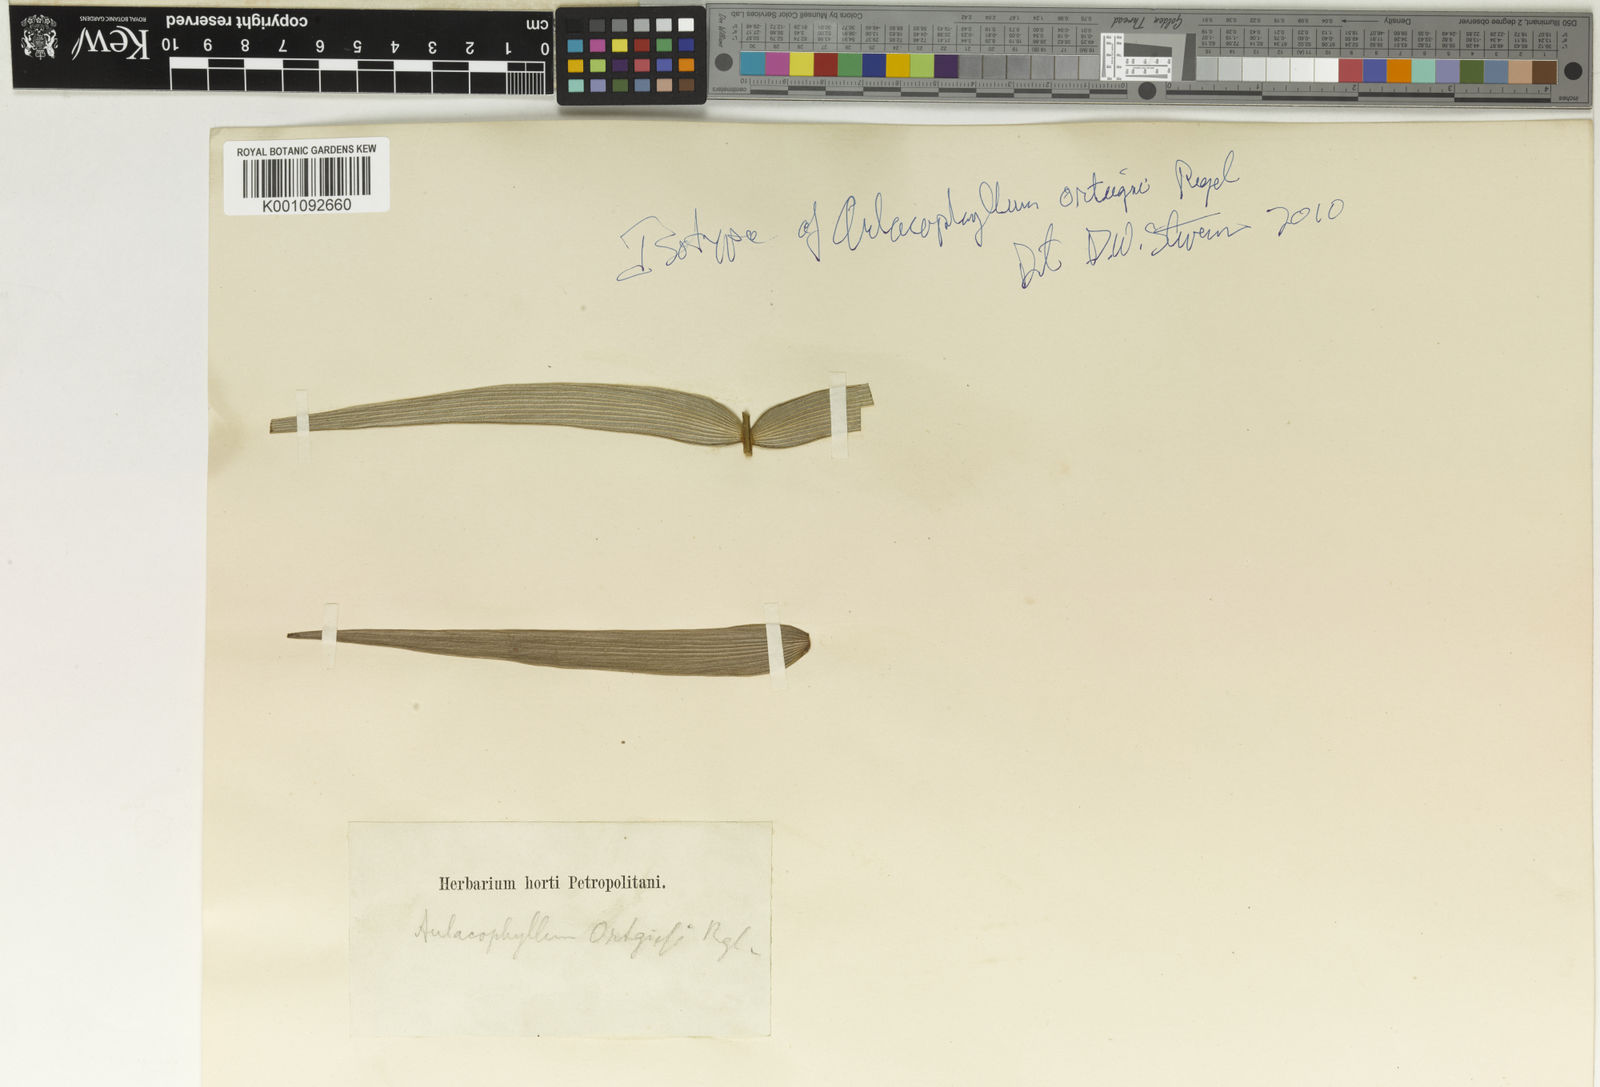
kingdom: Plantae
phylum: Tracheophyta
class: Cycadopsida
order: Cycadales
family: Zamiaceae
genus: Macrozamia
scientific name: Macrozamia miquelii
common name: Wild pineapple
